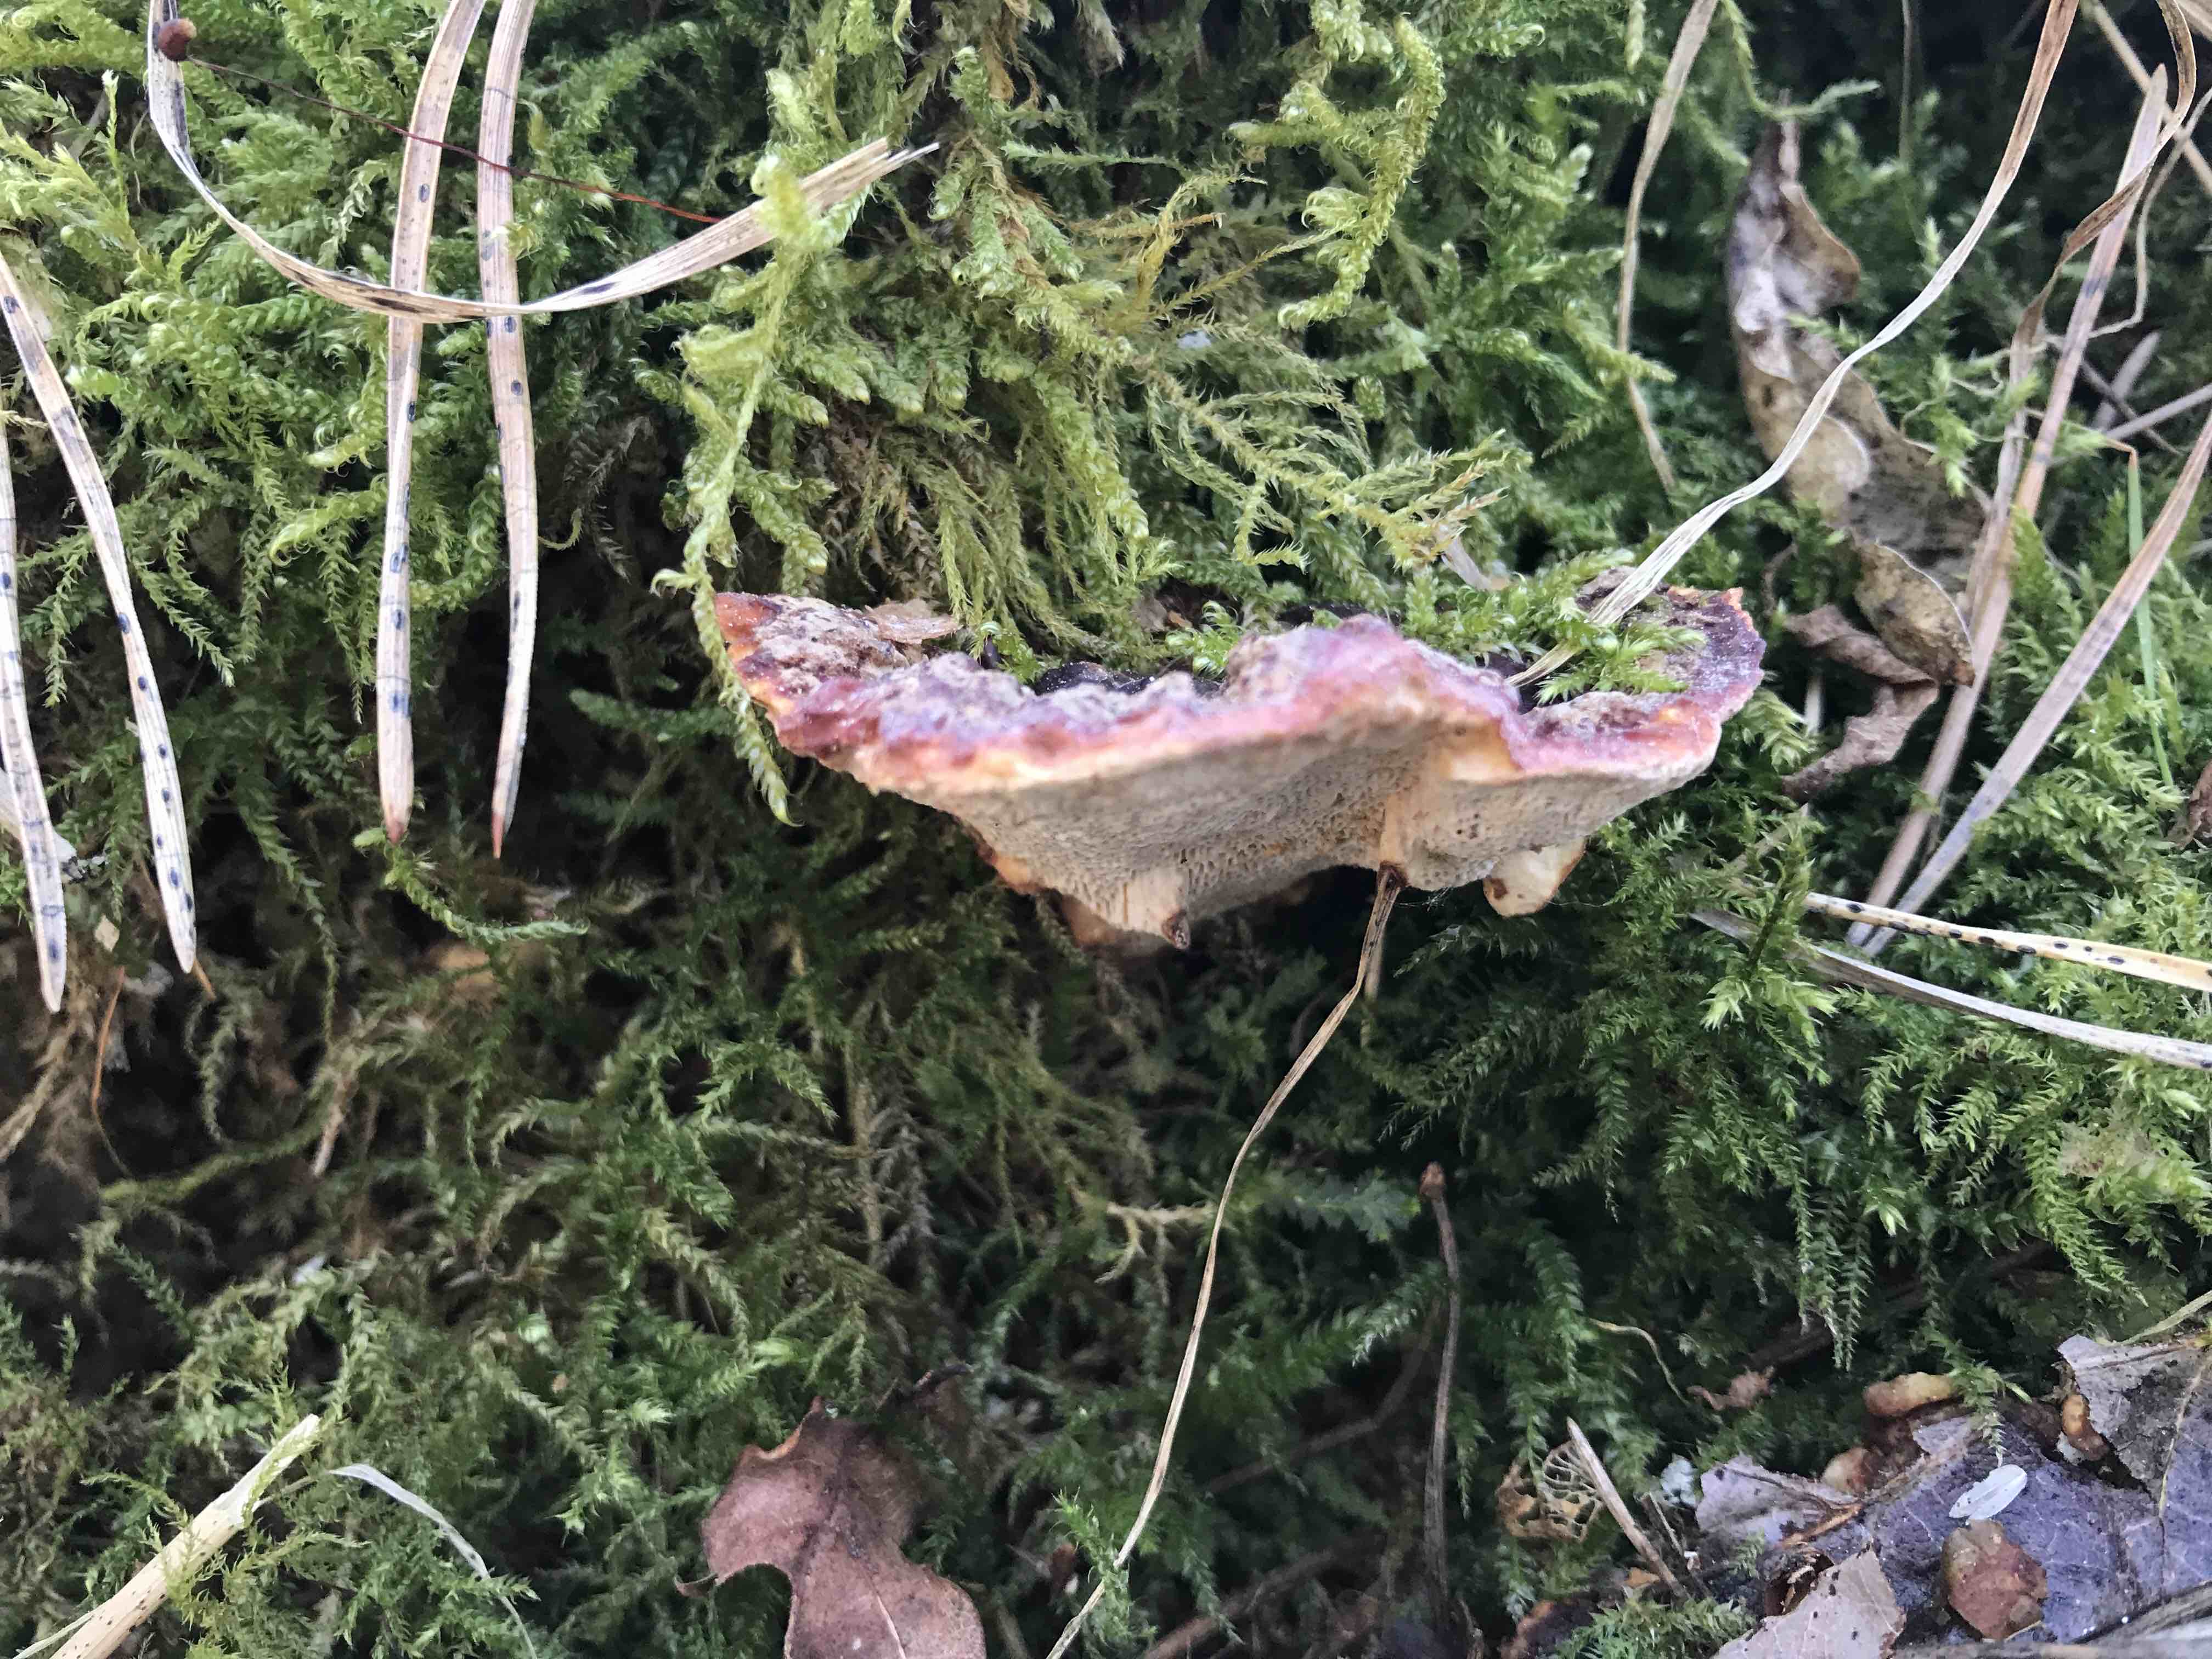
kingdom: Fungi
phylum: Basidiomycota
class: Agaricomycetes
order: Russulales
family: Bondarzewiaceae
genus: Heterobasidion
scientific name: Heterobasidion annosum
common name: almindelig rodfordærver
